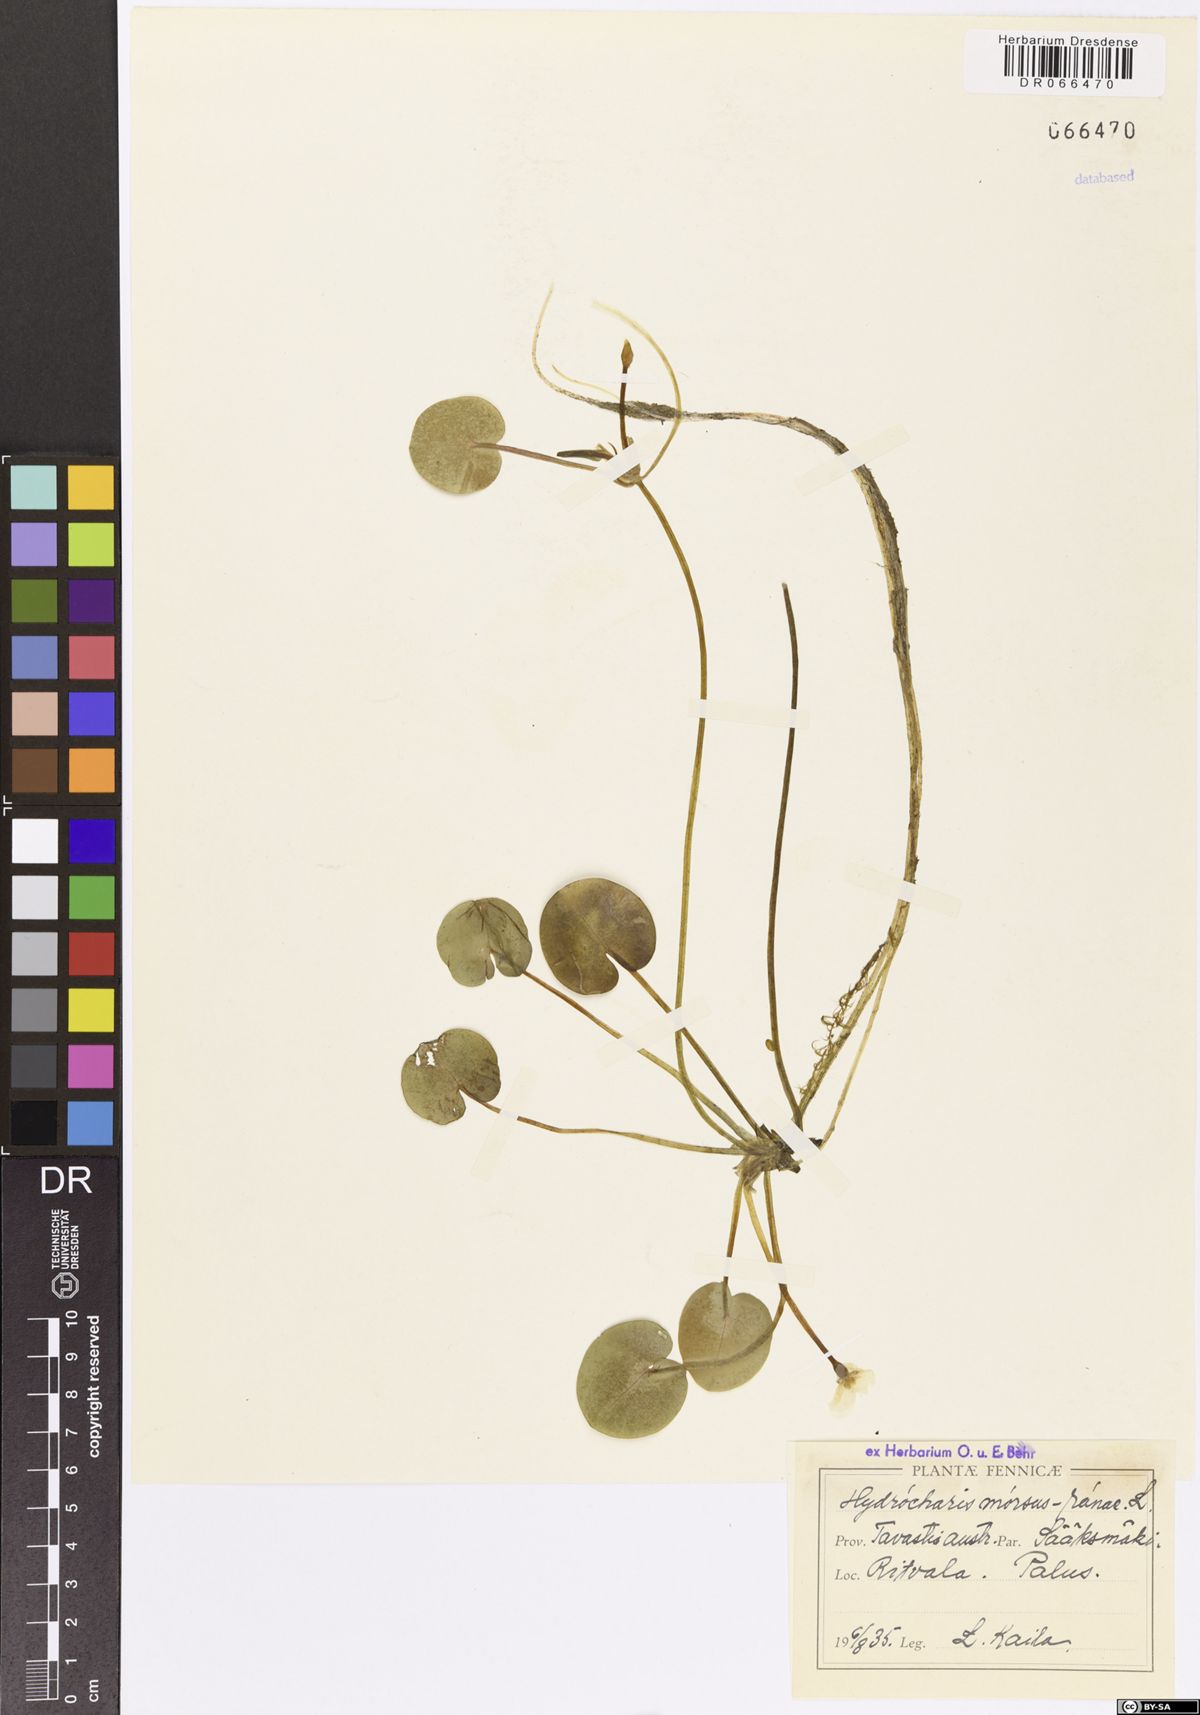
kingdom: Plantae
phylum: Tracheophyta
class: Liliopsida
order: Alismatales
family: Hydrocharitaceae
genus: Hydrocharis
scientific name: Hydrocharis morsus-ranae
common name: Frogbit
